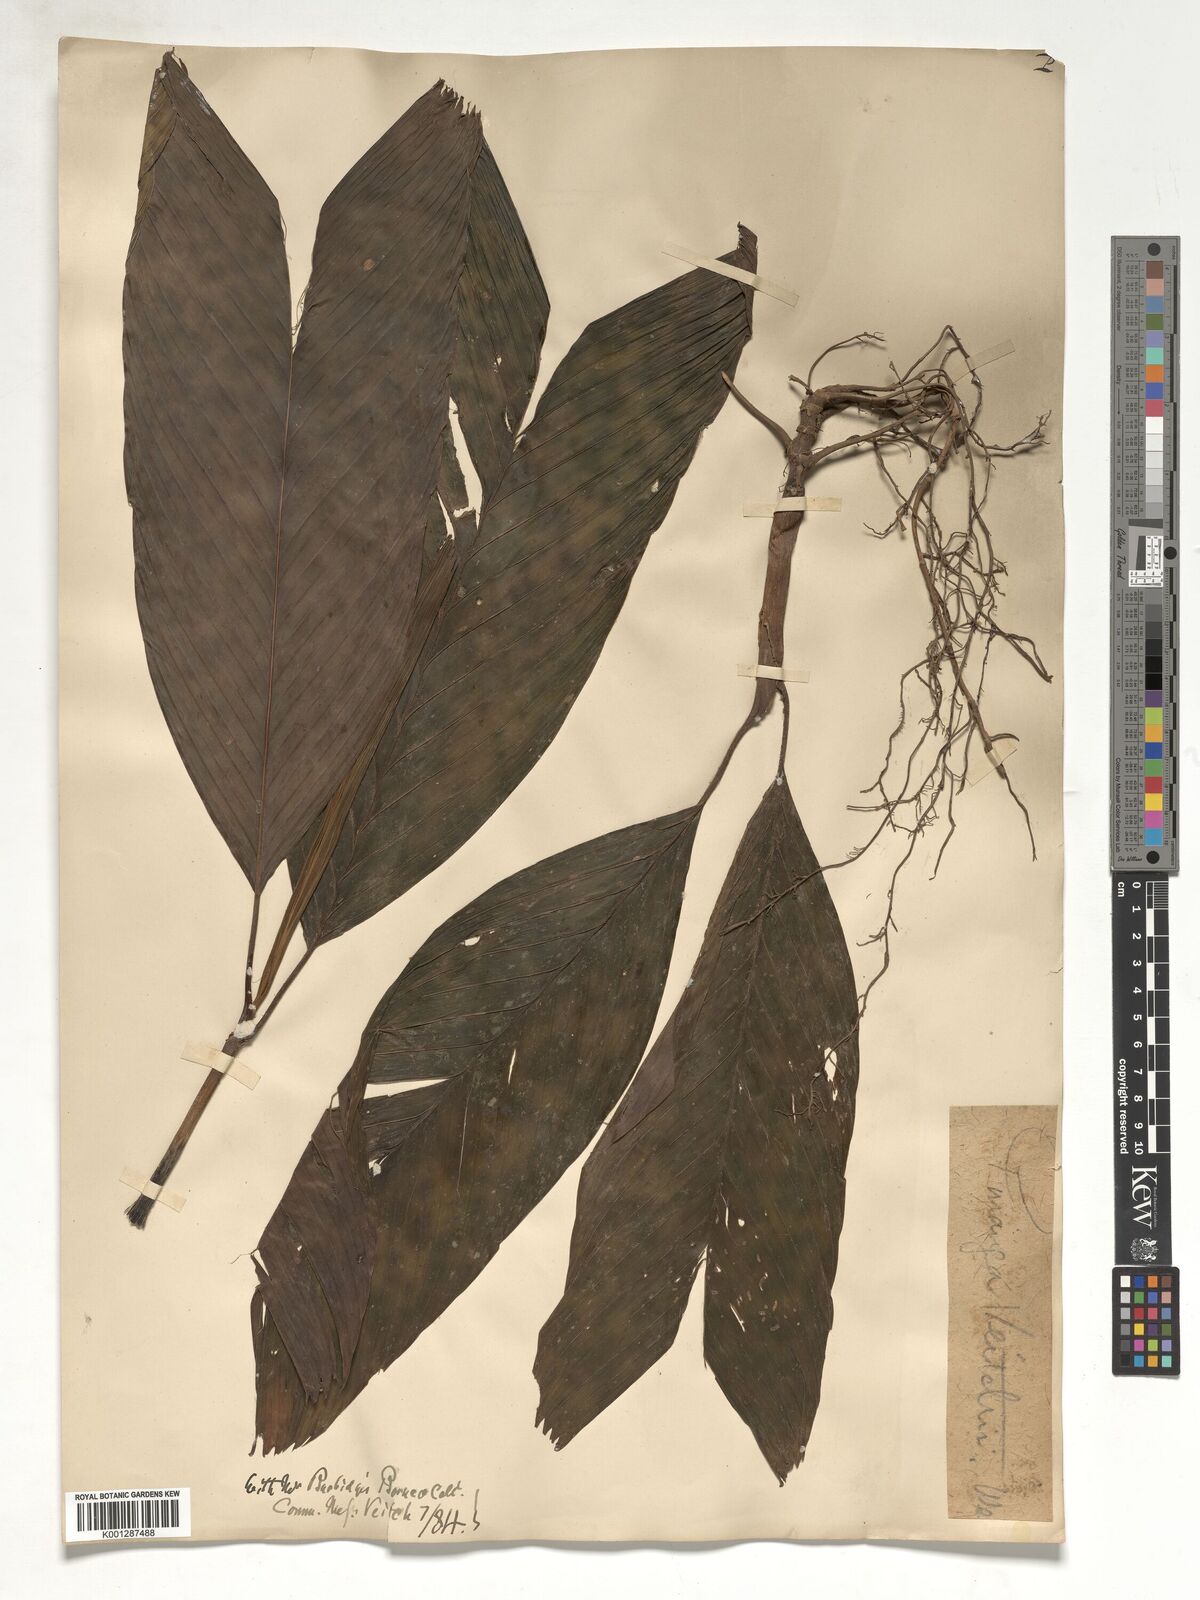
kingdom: Plantae
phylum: Tracheophyta
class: Liliopsida
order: Arecales
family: Arecaceae
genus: Pinanga
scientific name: Pinanga veitchii
